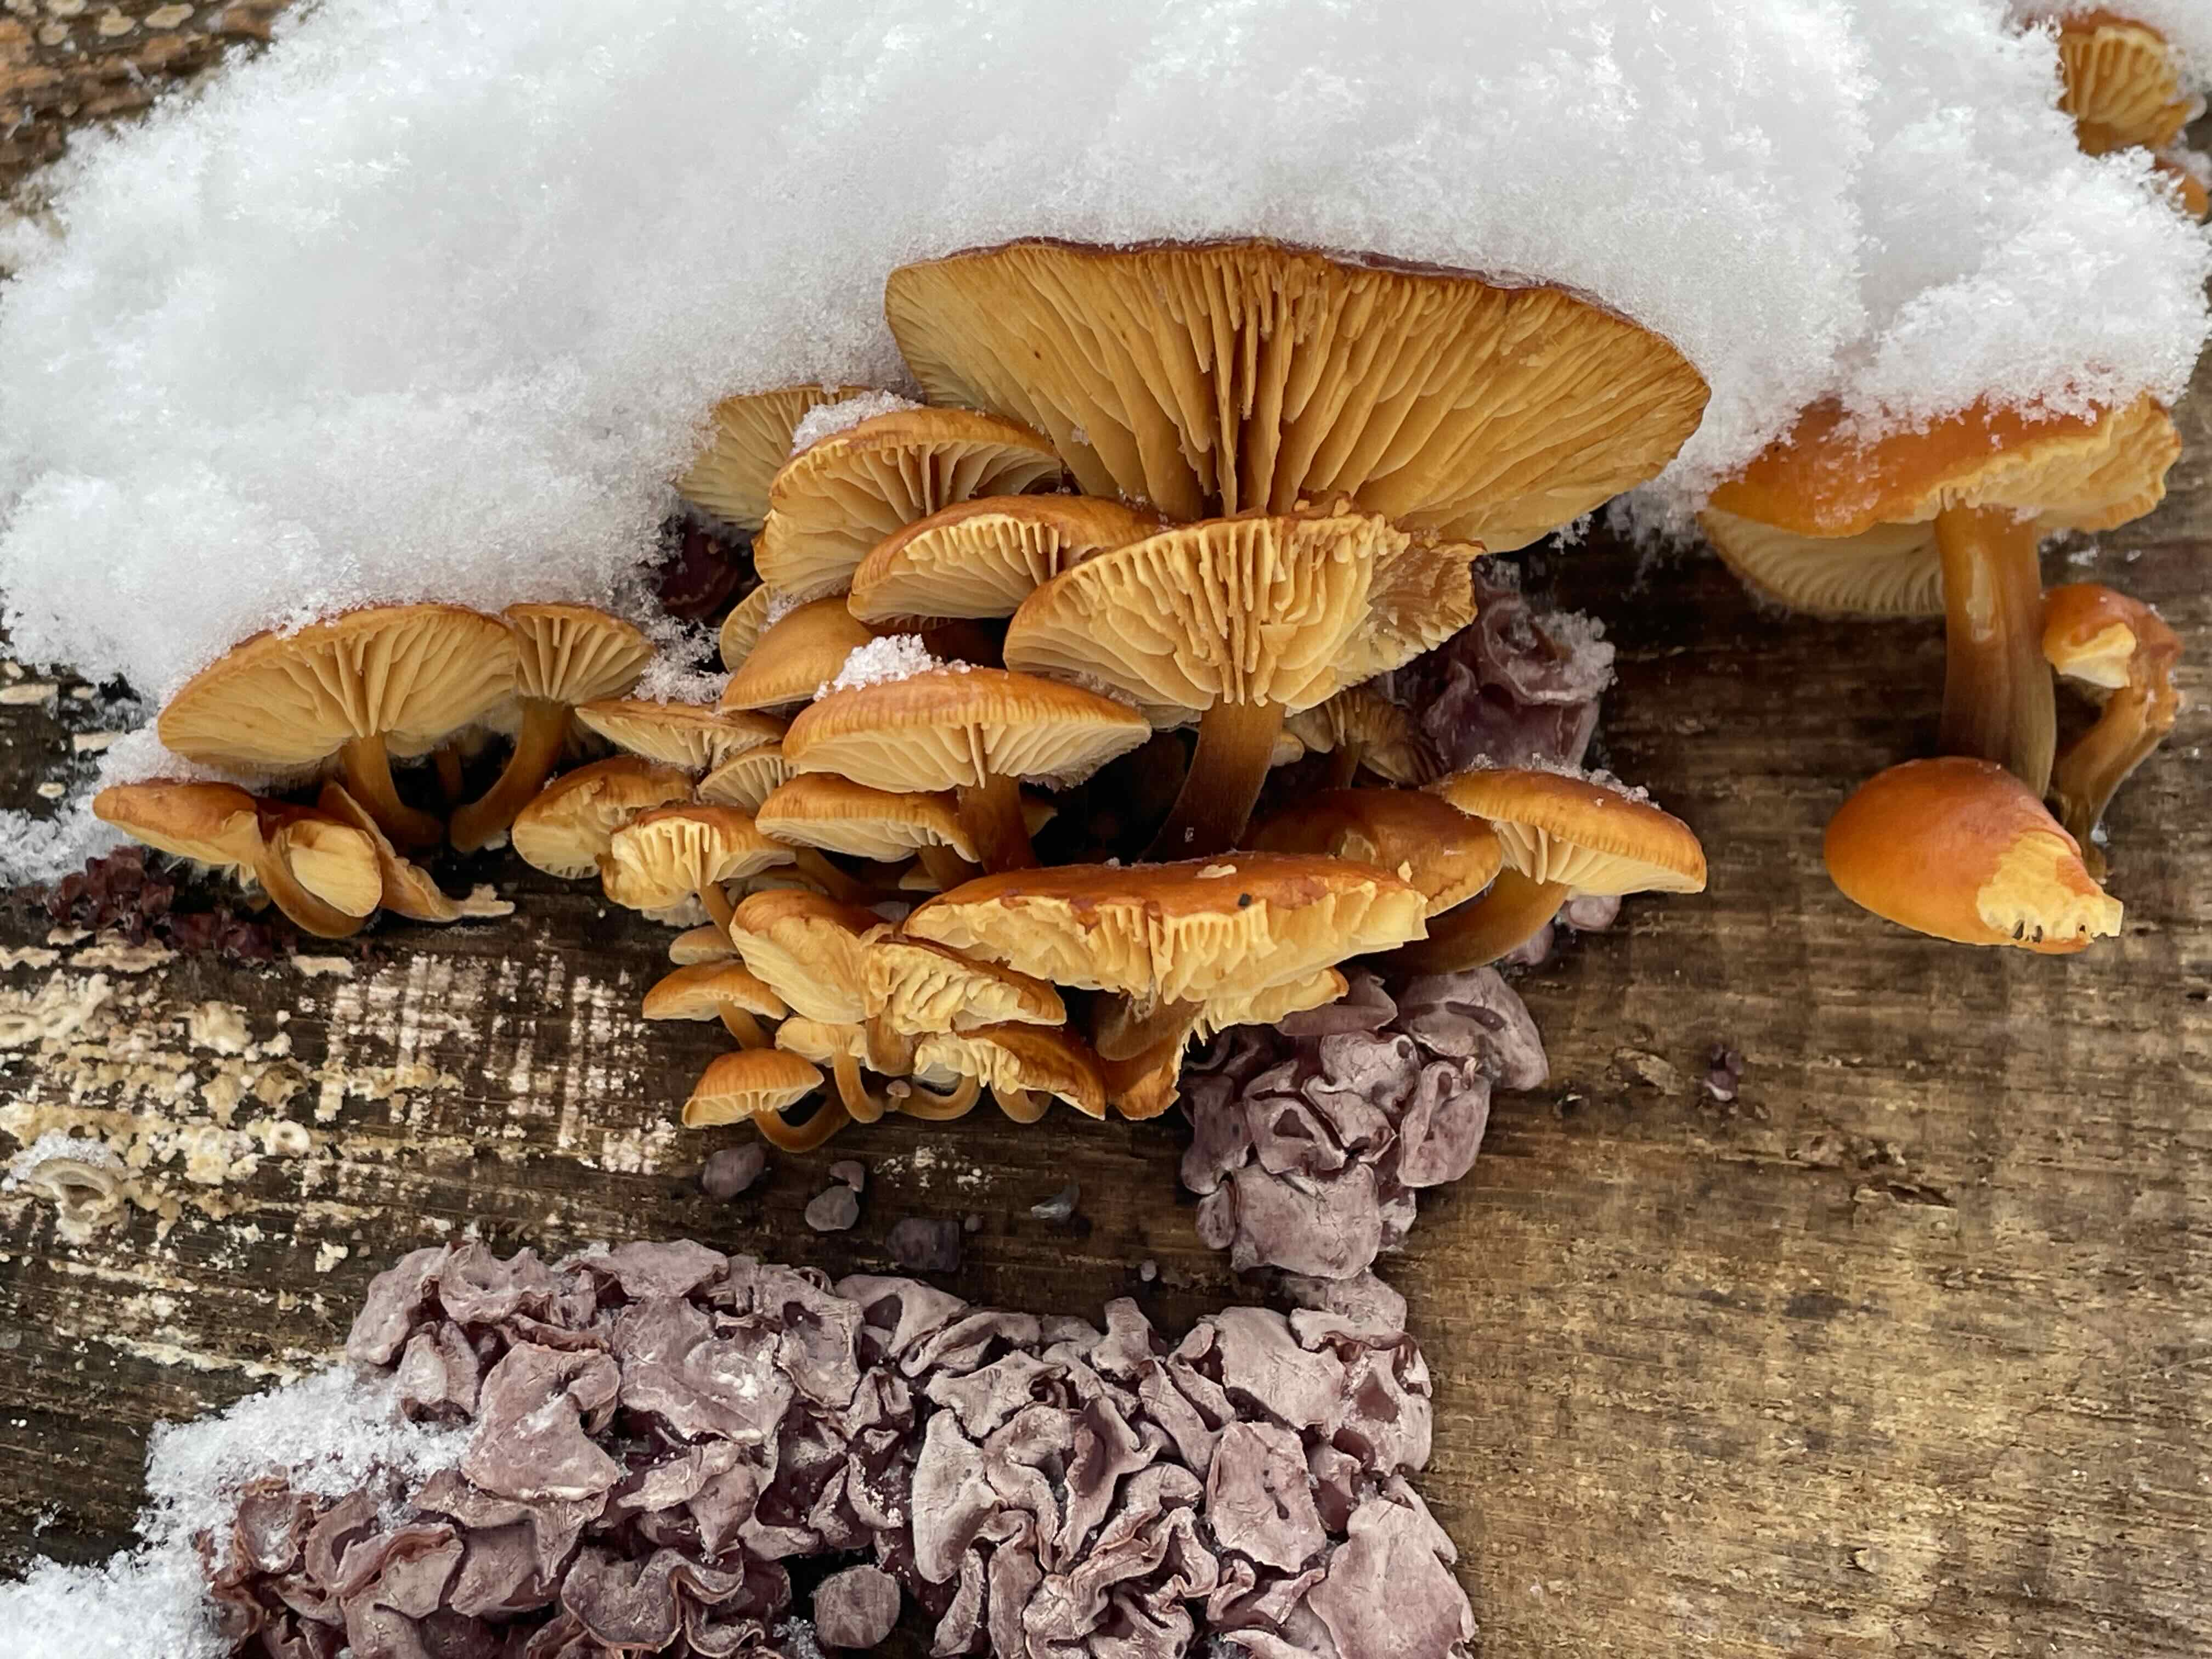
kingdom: Fungi
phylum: Basidiomycota
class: Agaricomycetes
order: Agaricales
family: Physalacriaceae
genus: Flammulina
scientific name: Flammulina velutipes
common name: gul fløjlsfod
